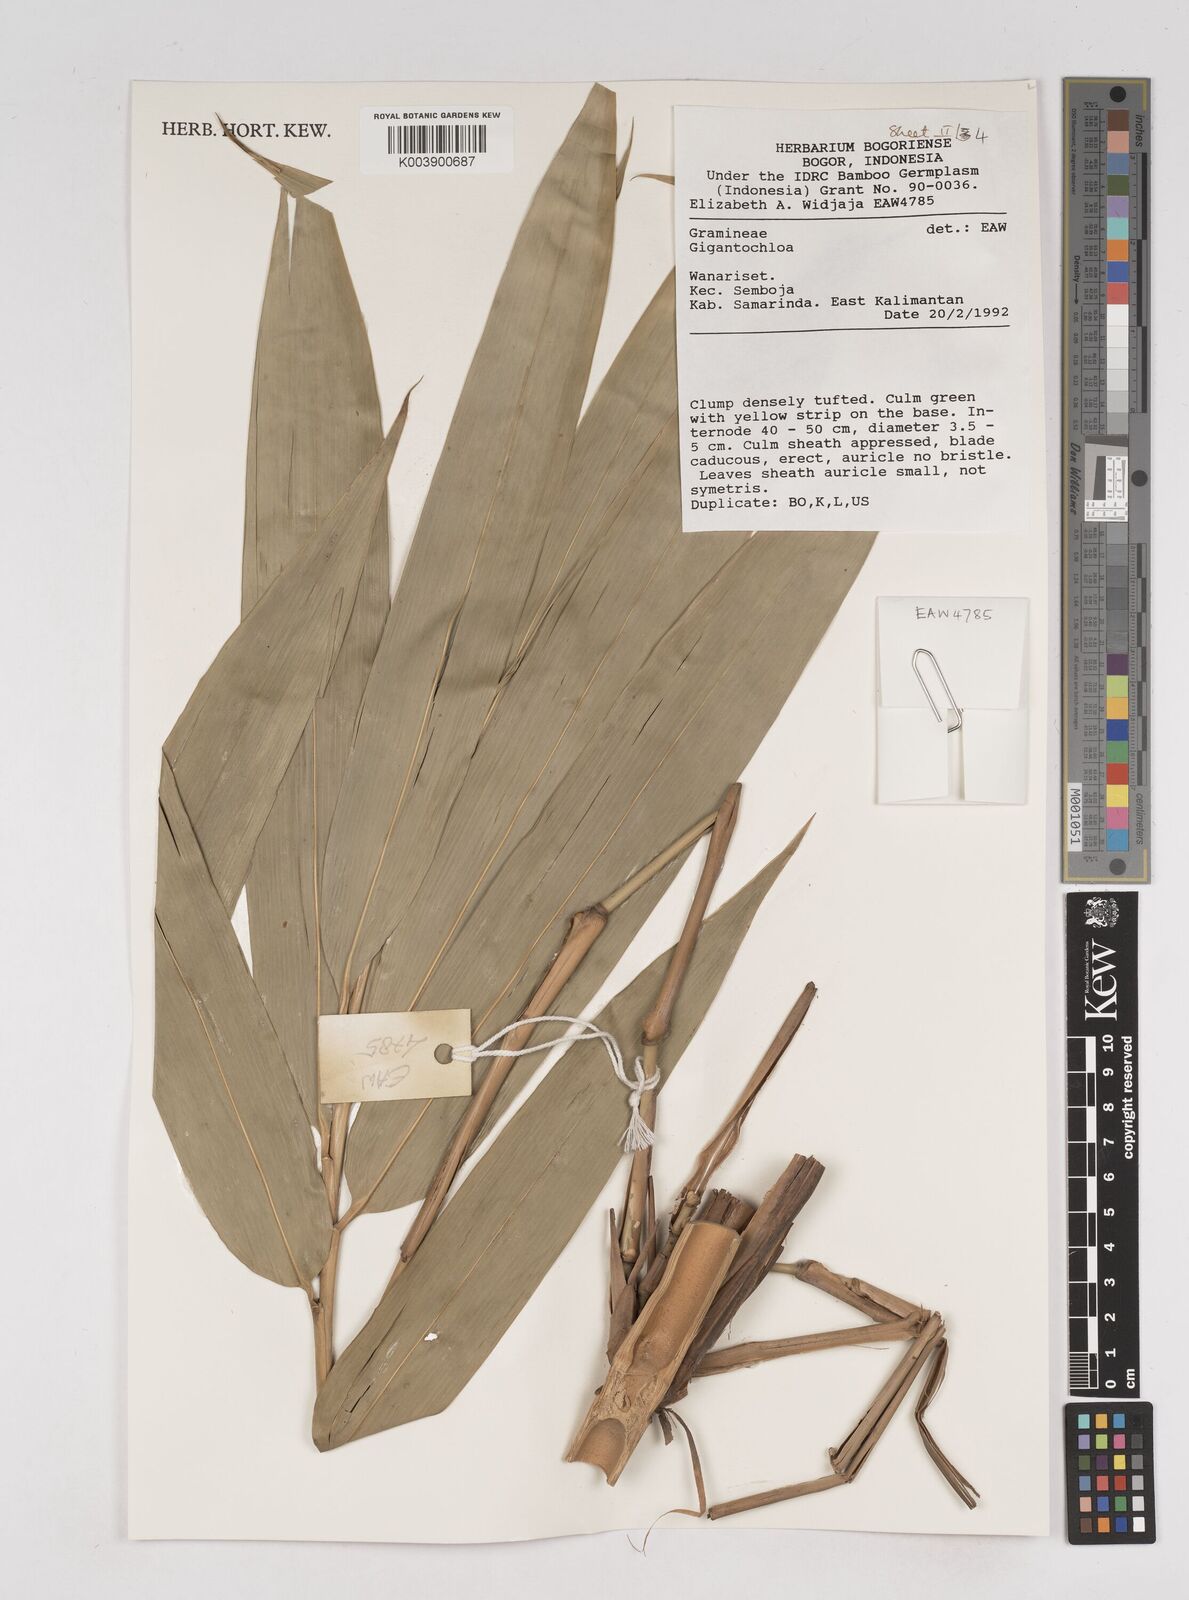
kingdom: Plantae
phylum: Tracheophyta
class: Liliopsida
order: Poales
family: Poaceae
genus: Gigantochloa
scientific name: Gigantochloa
